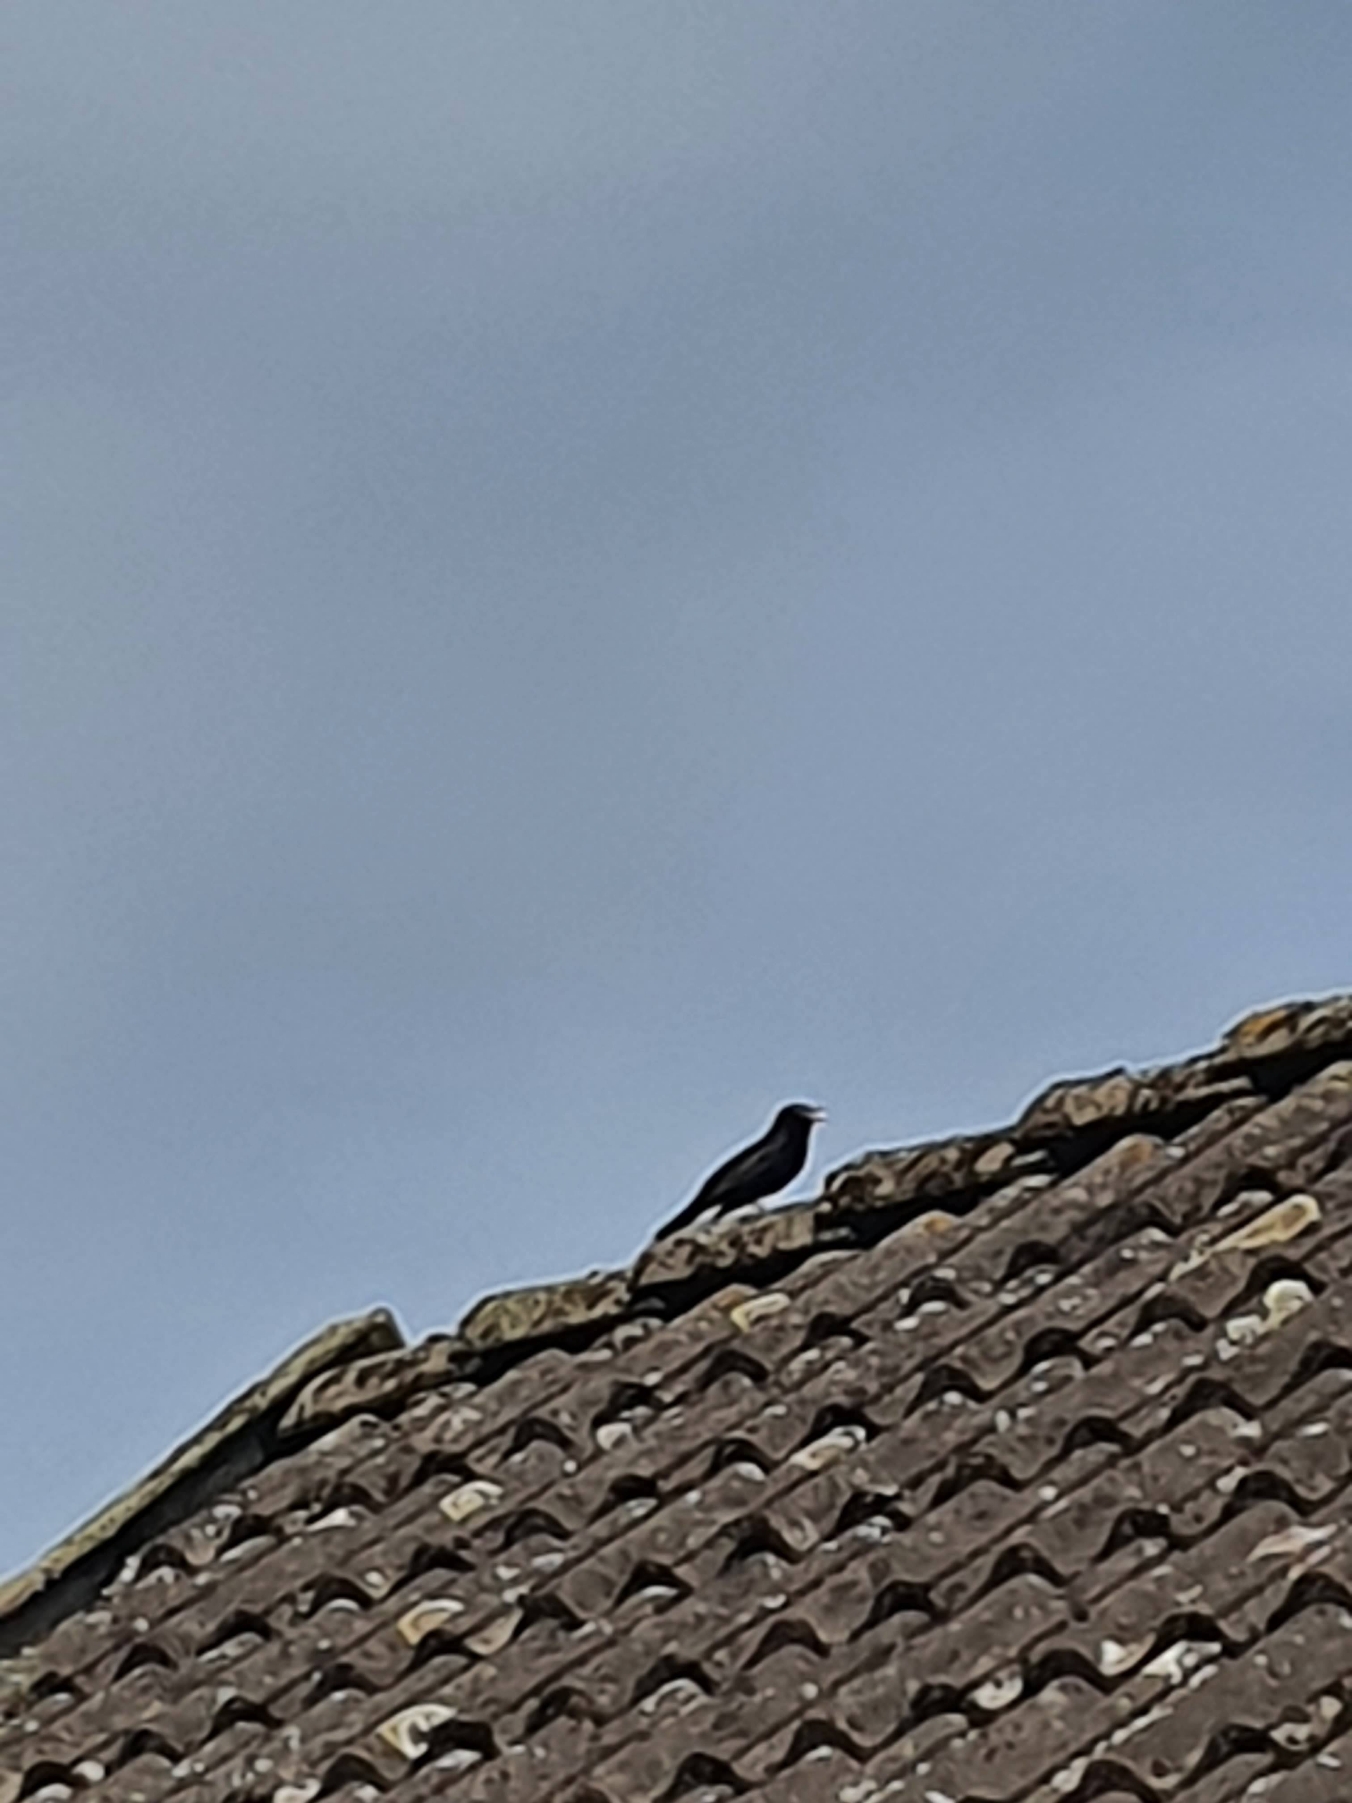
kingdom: Animalia
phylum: Chordata
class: Aves
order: Passeriformes
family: Turdidae
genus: Turdus
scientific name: Turdus merula
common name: Solsort
